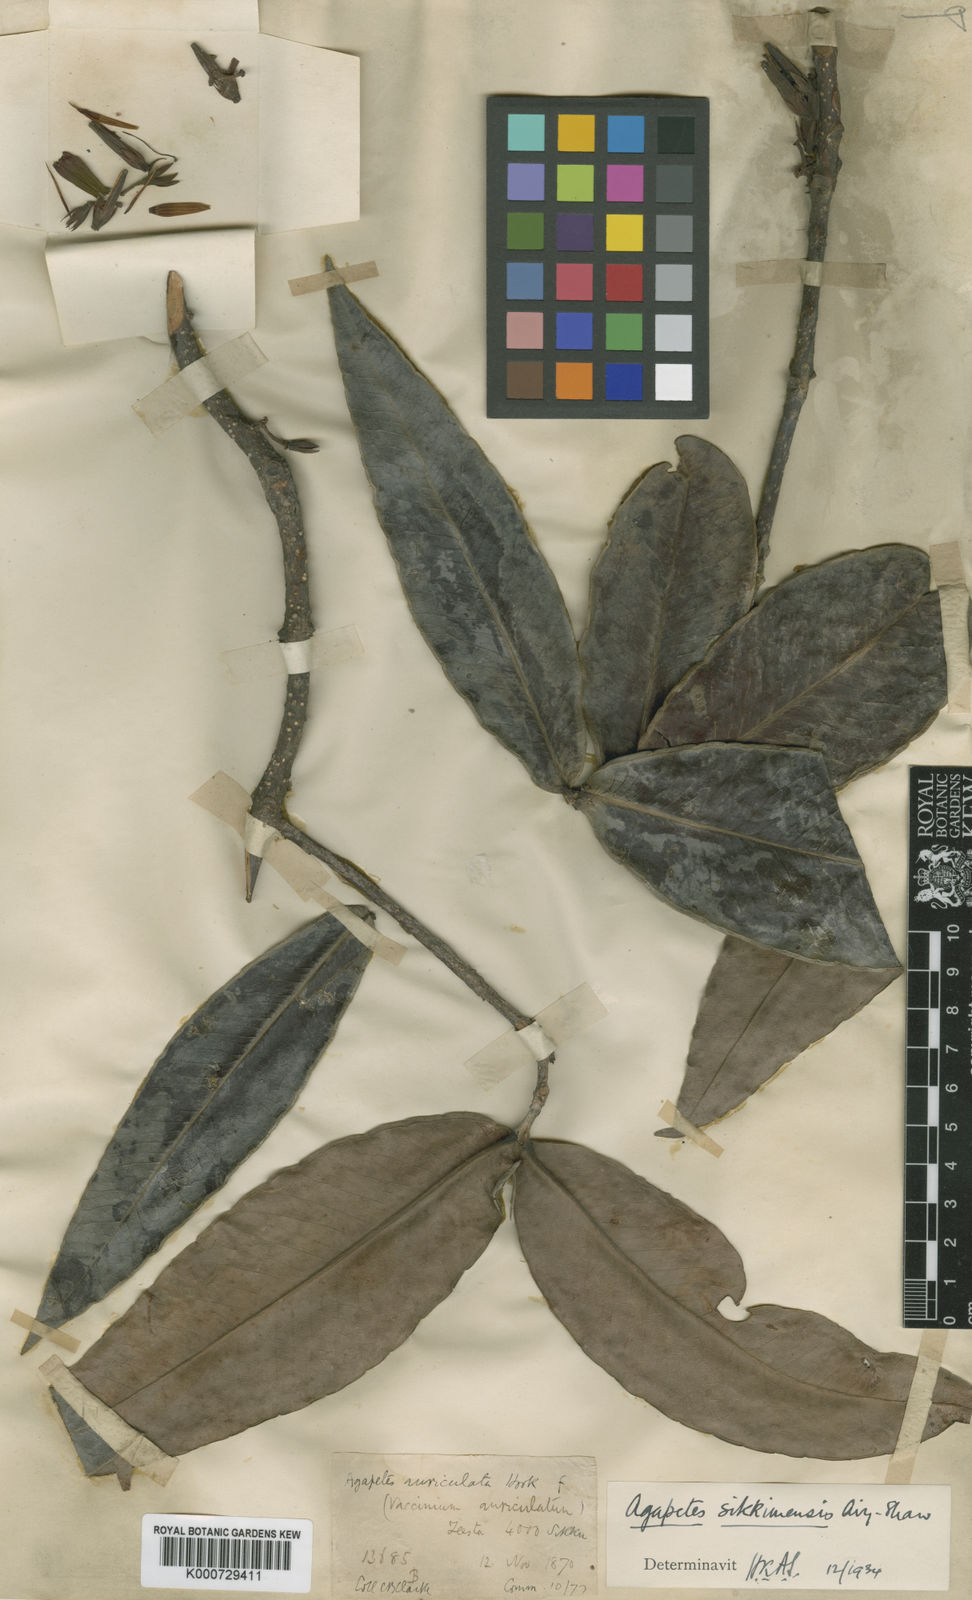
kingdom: Plantae
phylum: Tracheophyta
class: Magnoliopsida
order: Ericales
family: Ericaceae
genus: Agapetes
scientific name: Agapetes sikkimensis
